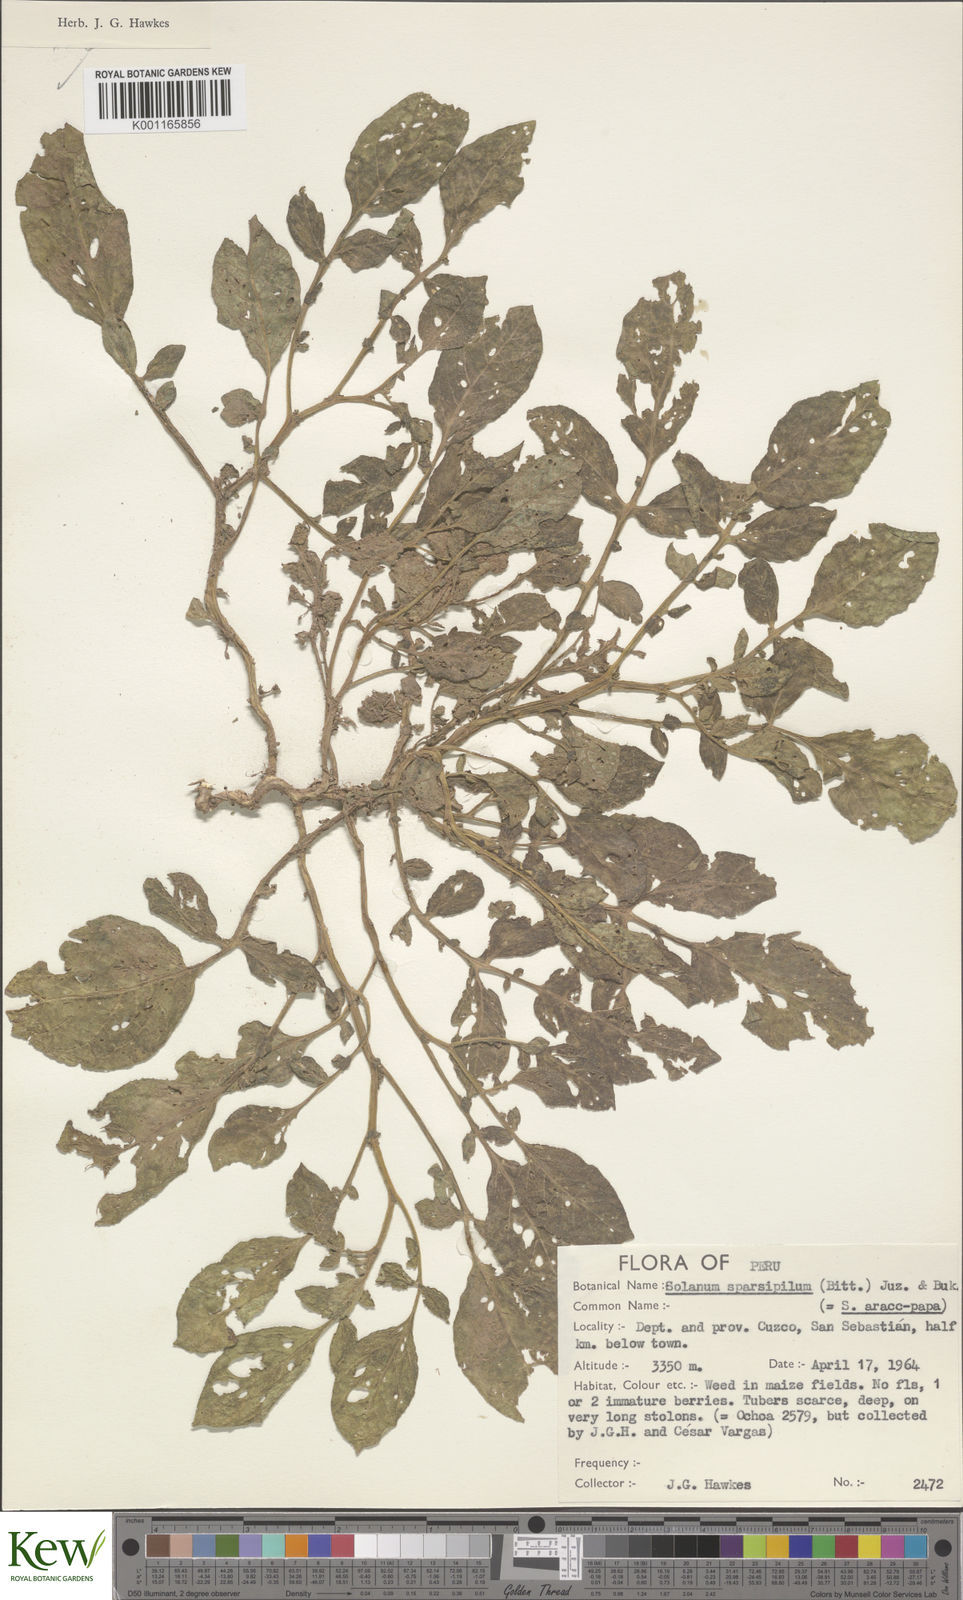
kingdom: Plantae
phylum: Tracheophyta
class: Magnoliopsida
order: Solanales
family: Solanaceae
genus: Solanum
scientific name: Solanum brevicaule
